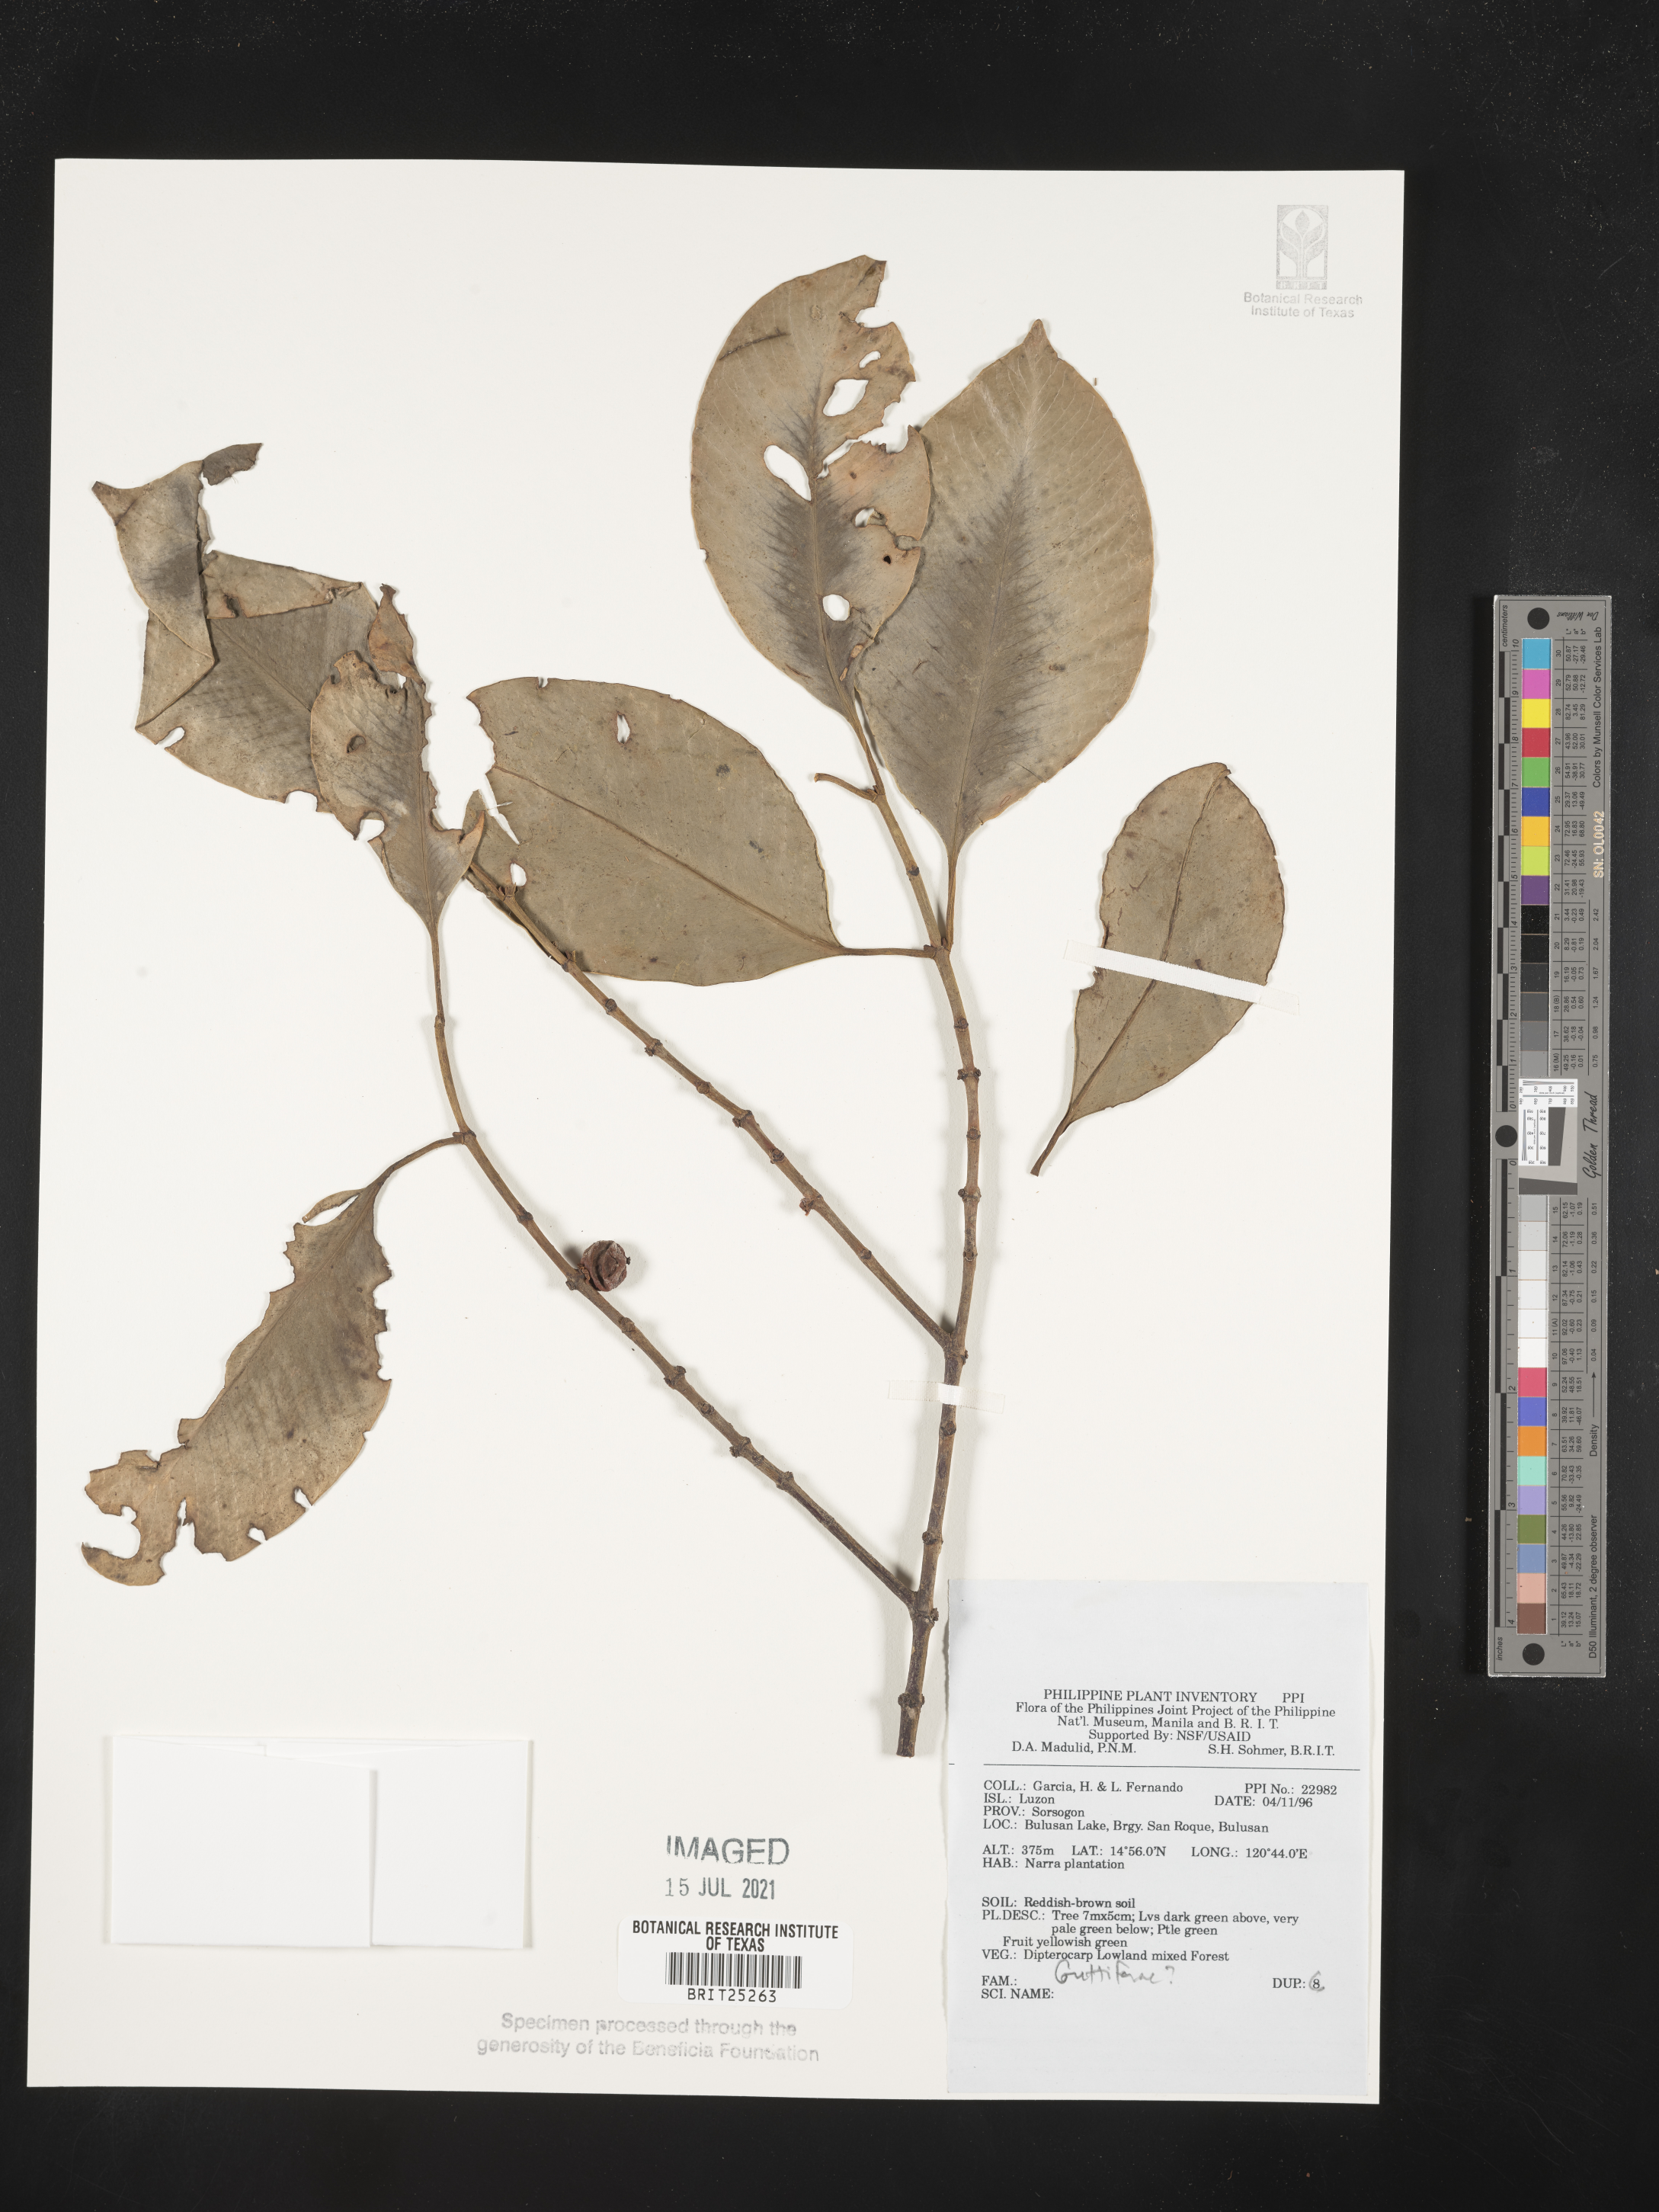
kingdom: Plantae
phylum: Tracheophyta
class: Magnoliopsida
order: Malpighiales
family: Hypericaceae
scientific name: Hypericaceae
